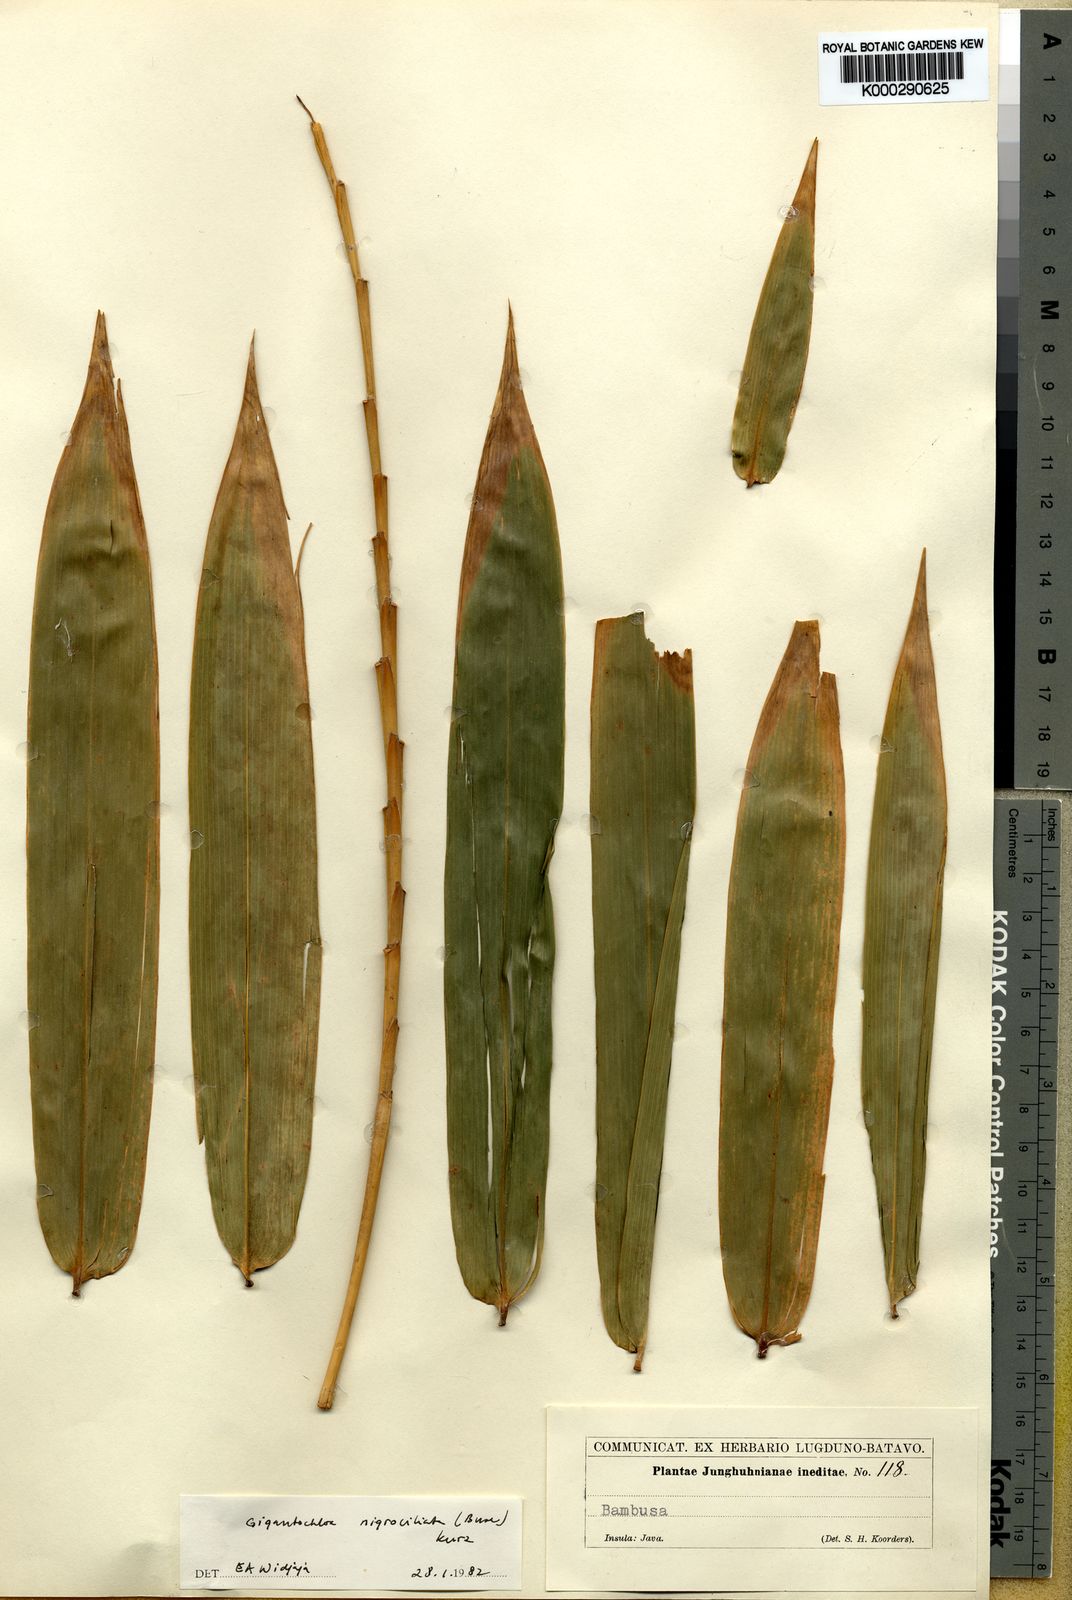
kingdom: Plantae
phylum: Tracheophyta
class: Liliopsida
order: Poales
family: Poaceae
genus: Gigantochloa
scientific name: Gigantochloa nigrociliata
